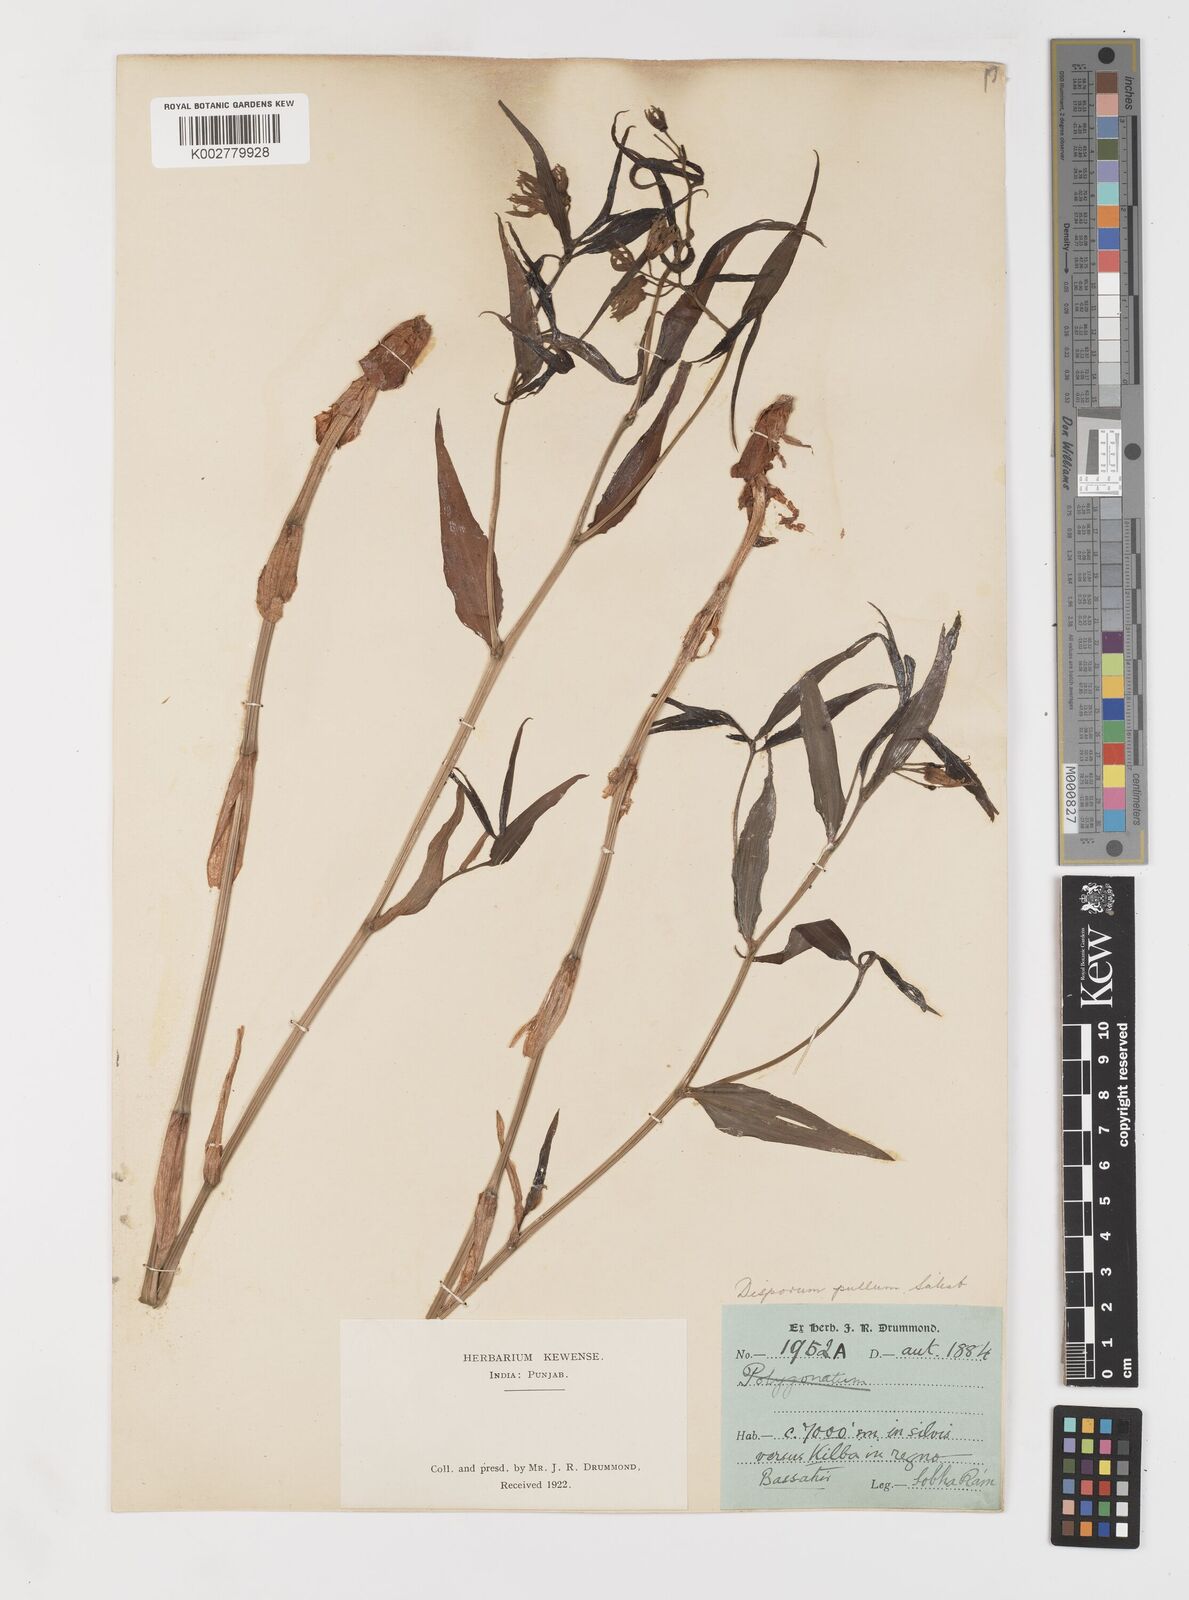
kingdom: Plantae
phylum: Tracheophyta
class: Liliopsida
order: Liliales
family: Colchicaceae
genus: Disporum
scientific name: Disporum cantoniense
